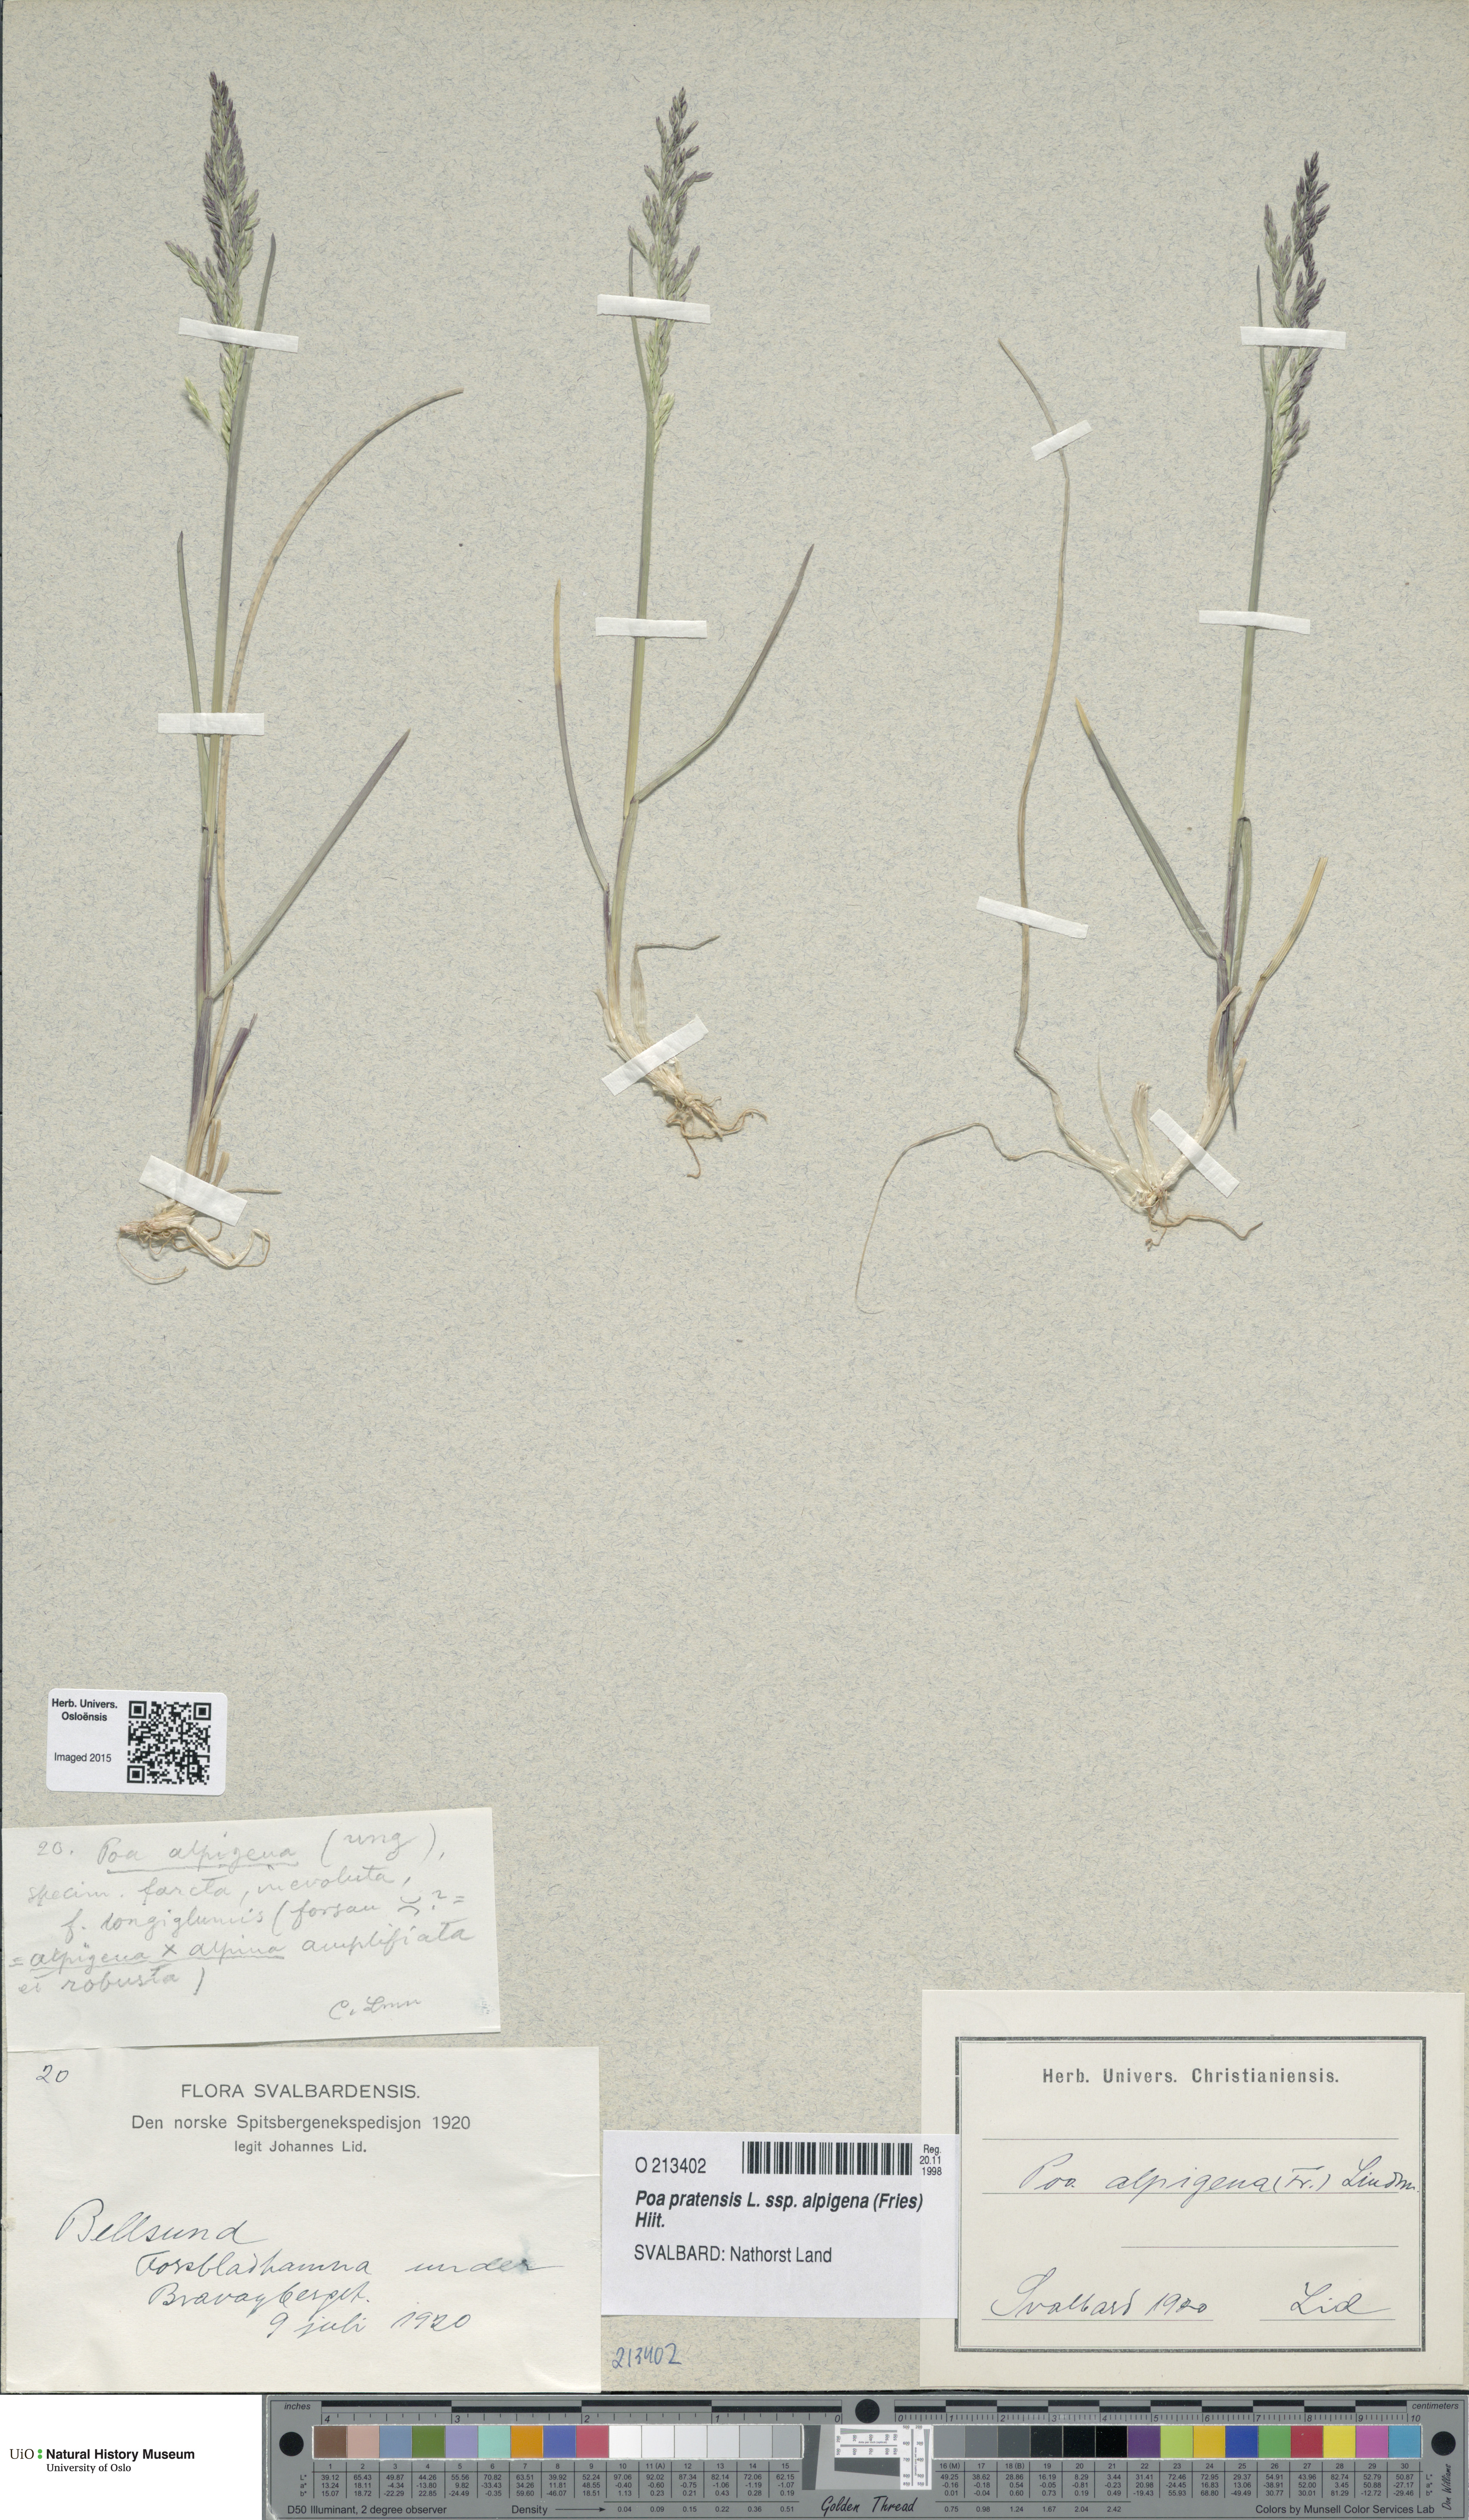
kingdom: Plantae
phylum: Tracheophyta
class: Liliopsida
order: Poales
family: Poaceae
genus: Poa
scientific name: Poa alpigena
